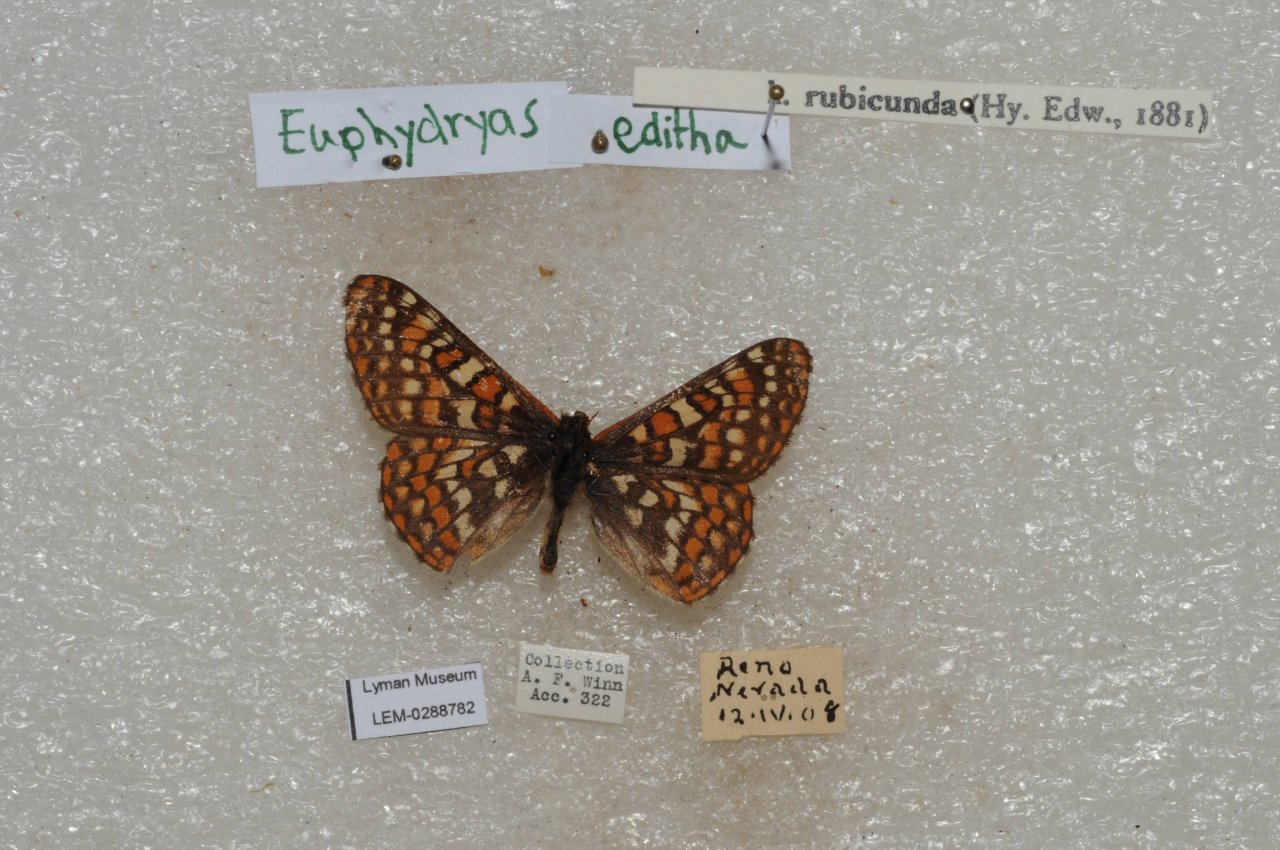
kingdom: Animalia
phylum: Arthropoda
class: Insecta
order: Lepidoptera
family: Nymphalidae
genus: Occidryas
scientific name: Occidryas editha
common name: Edith's Checkerspot
